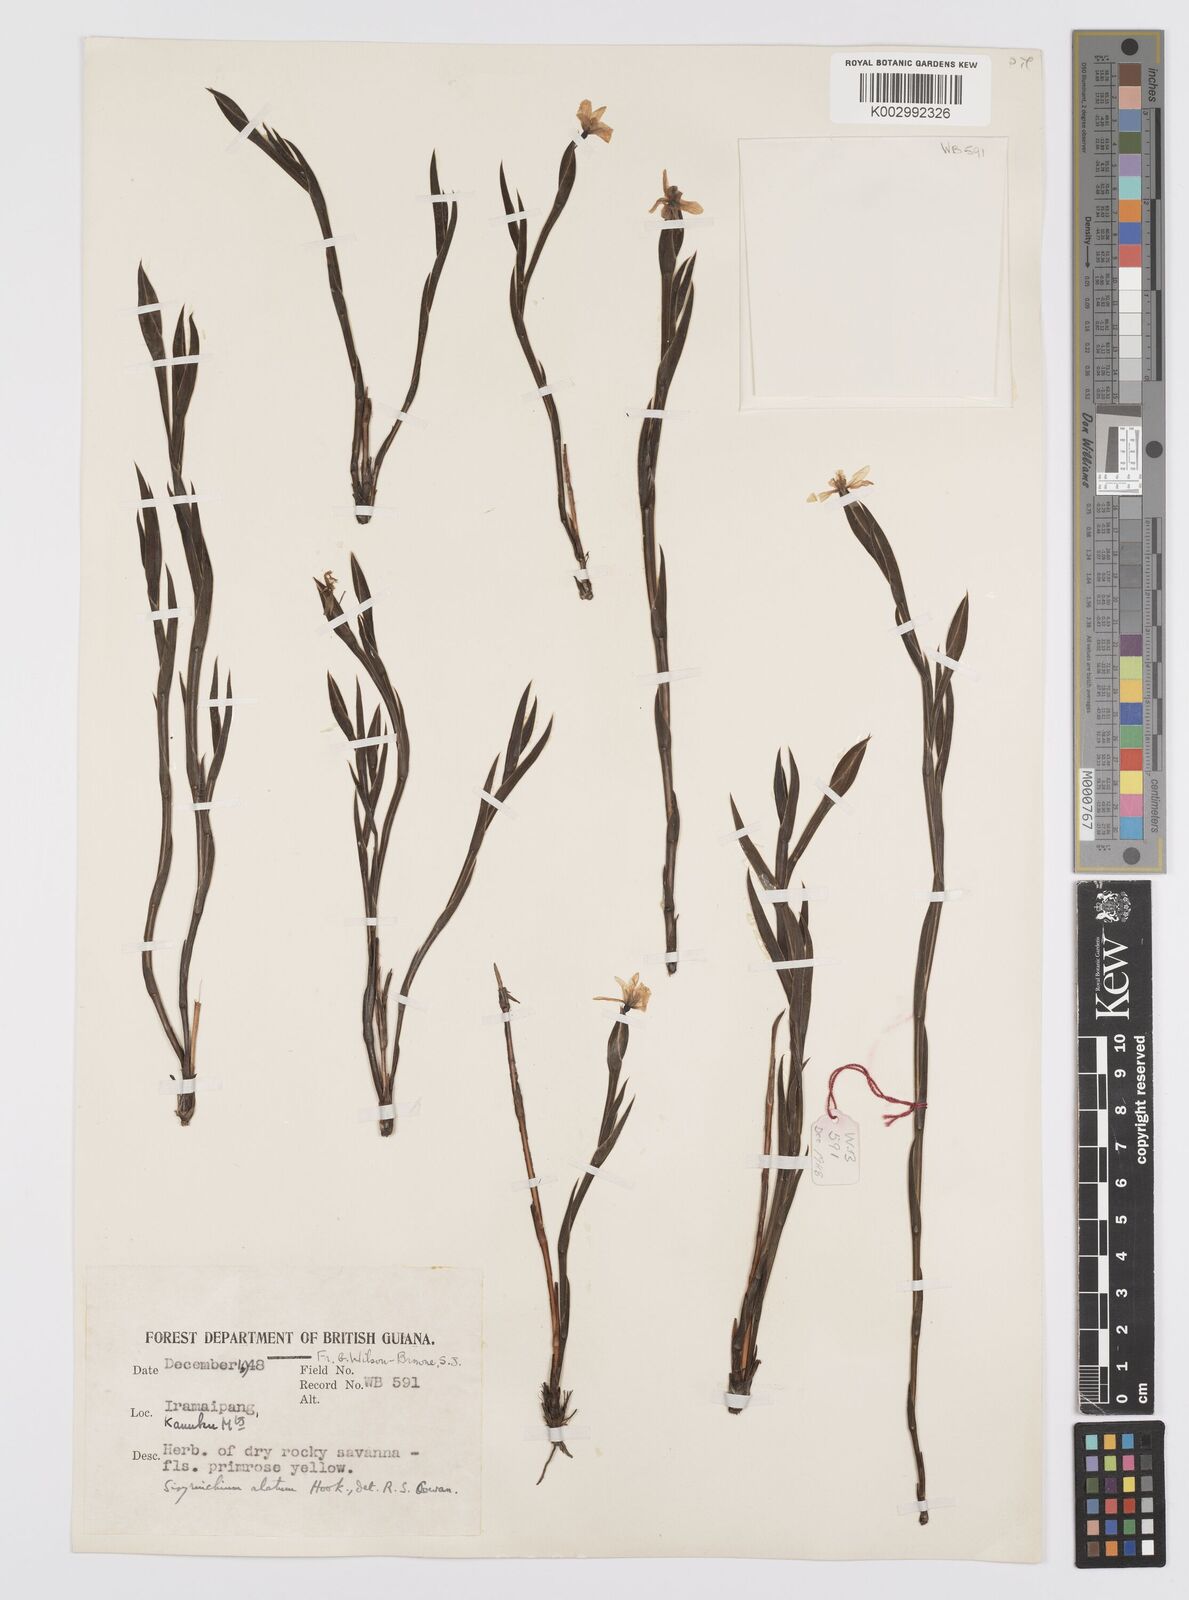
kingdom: Plantae
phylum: Tracheophyta
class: Liliopsida
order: Asparagales
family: Iridaceae
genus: Sisyrinchium
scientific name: Sisyrinchium vaginatum
